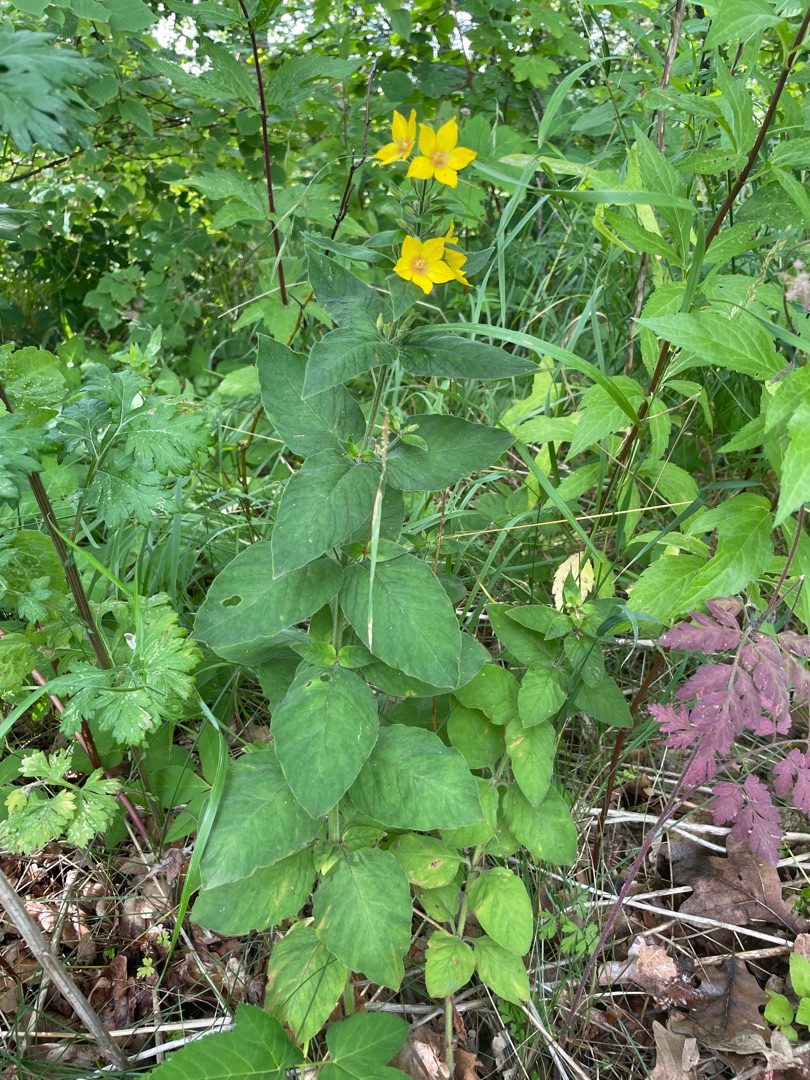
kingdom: Plantae
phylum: Tracheophyta
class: Magnoliopsida
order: Ericales
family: Primulaceae
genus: Lysimachia
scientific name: Lysimachia punctata
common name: Prikbladet fredløs
